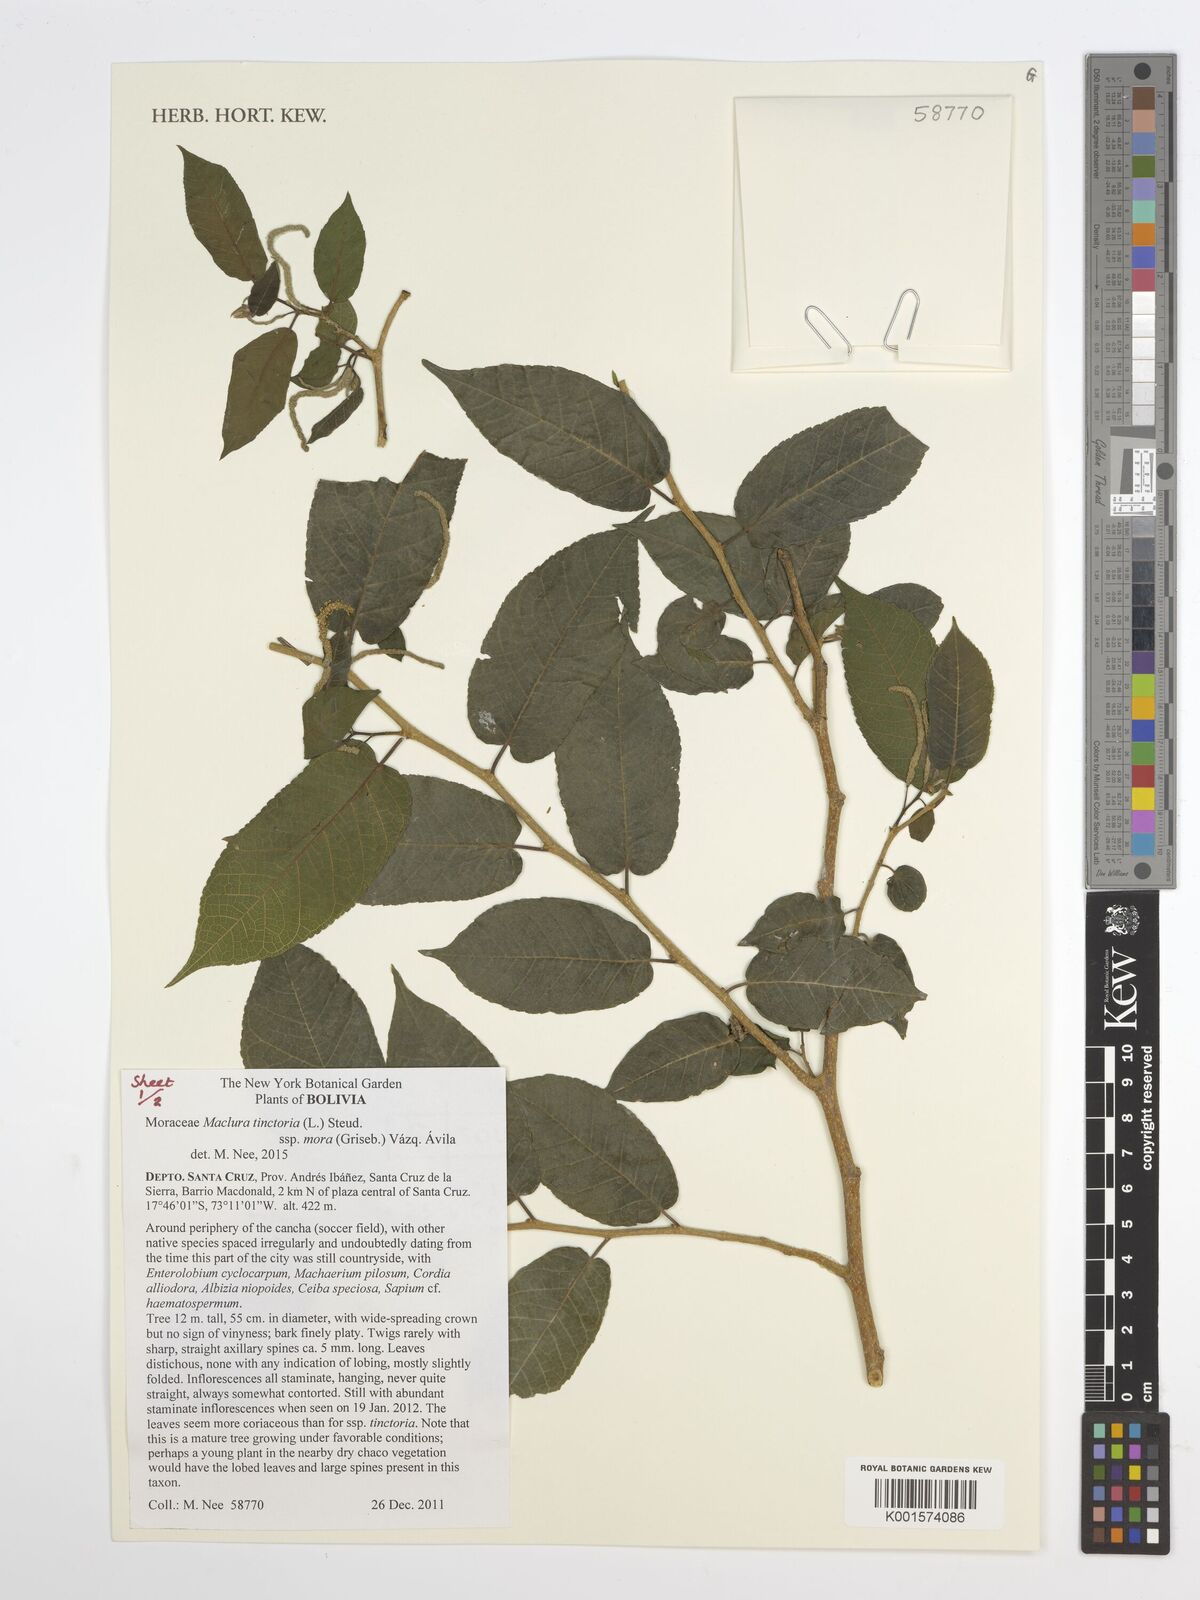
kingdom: Plantae
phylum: Tracheophyta
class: Magnoliopsida
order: Rosales
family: Moraceae
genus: Maclura
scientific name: Maclura tinctoria
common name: Old fustic
